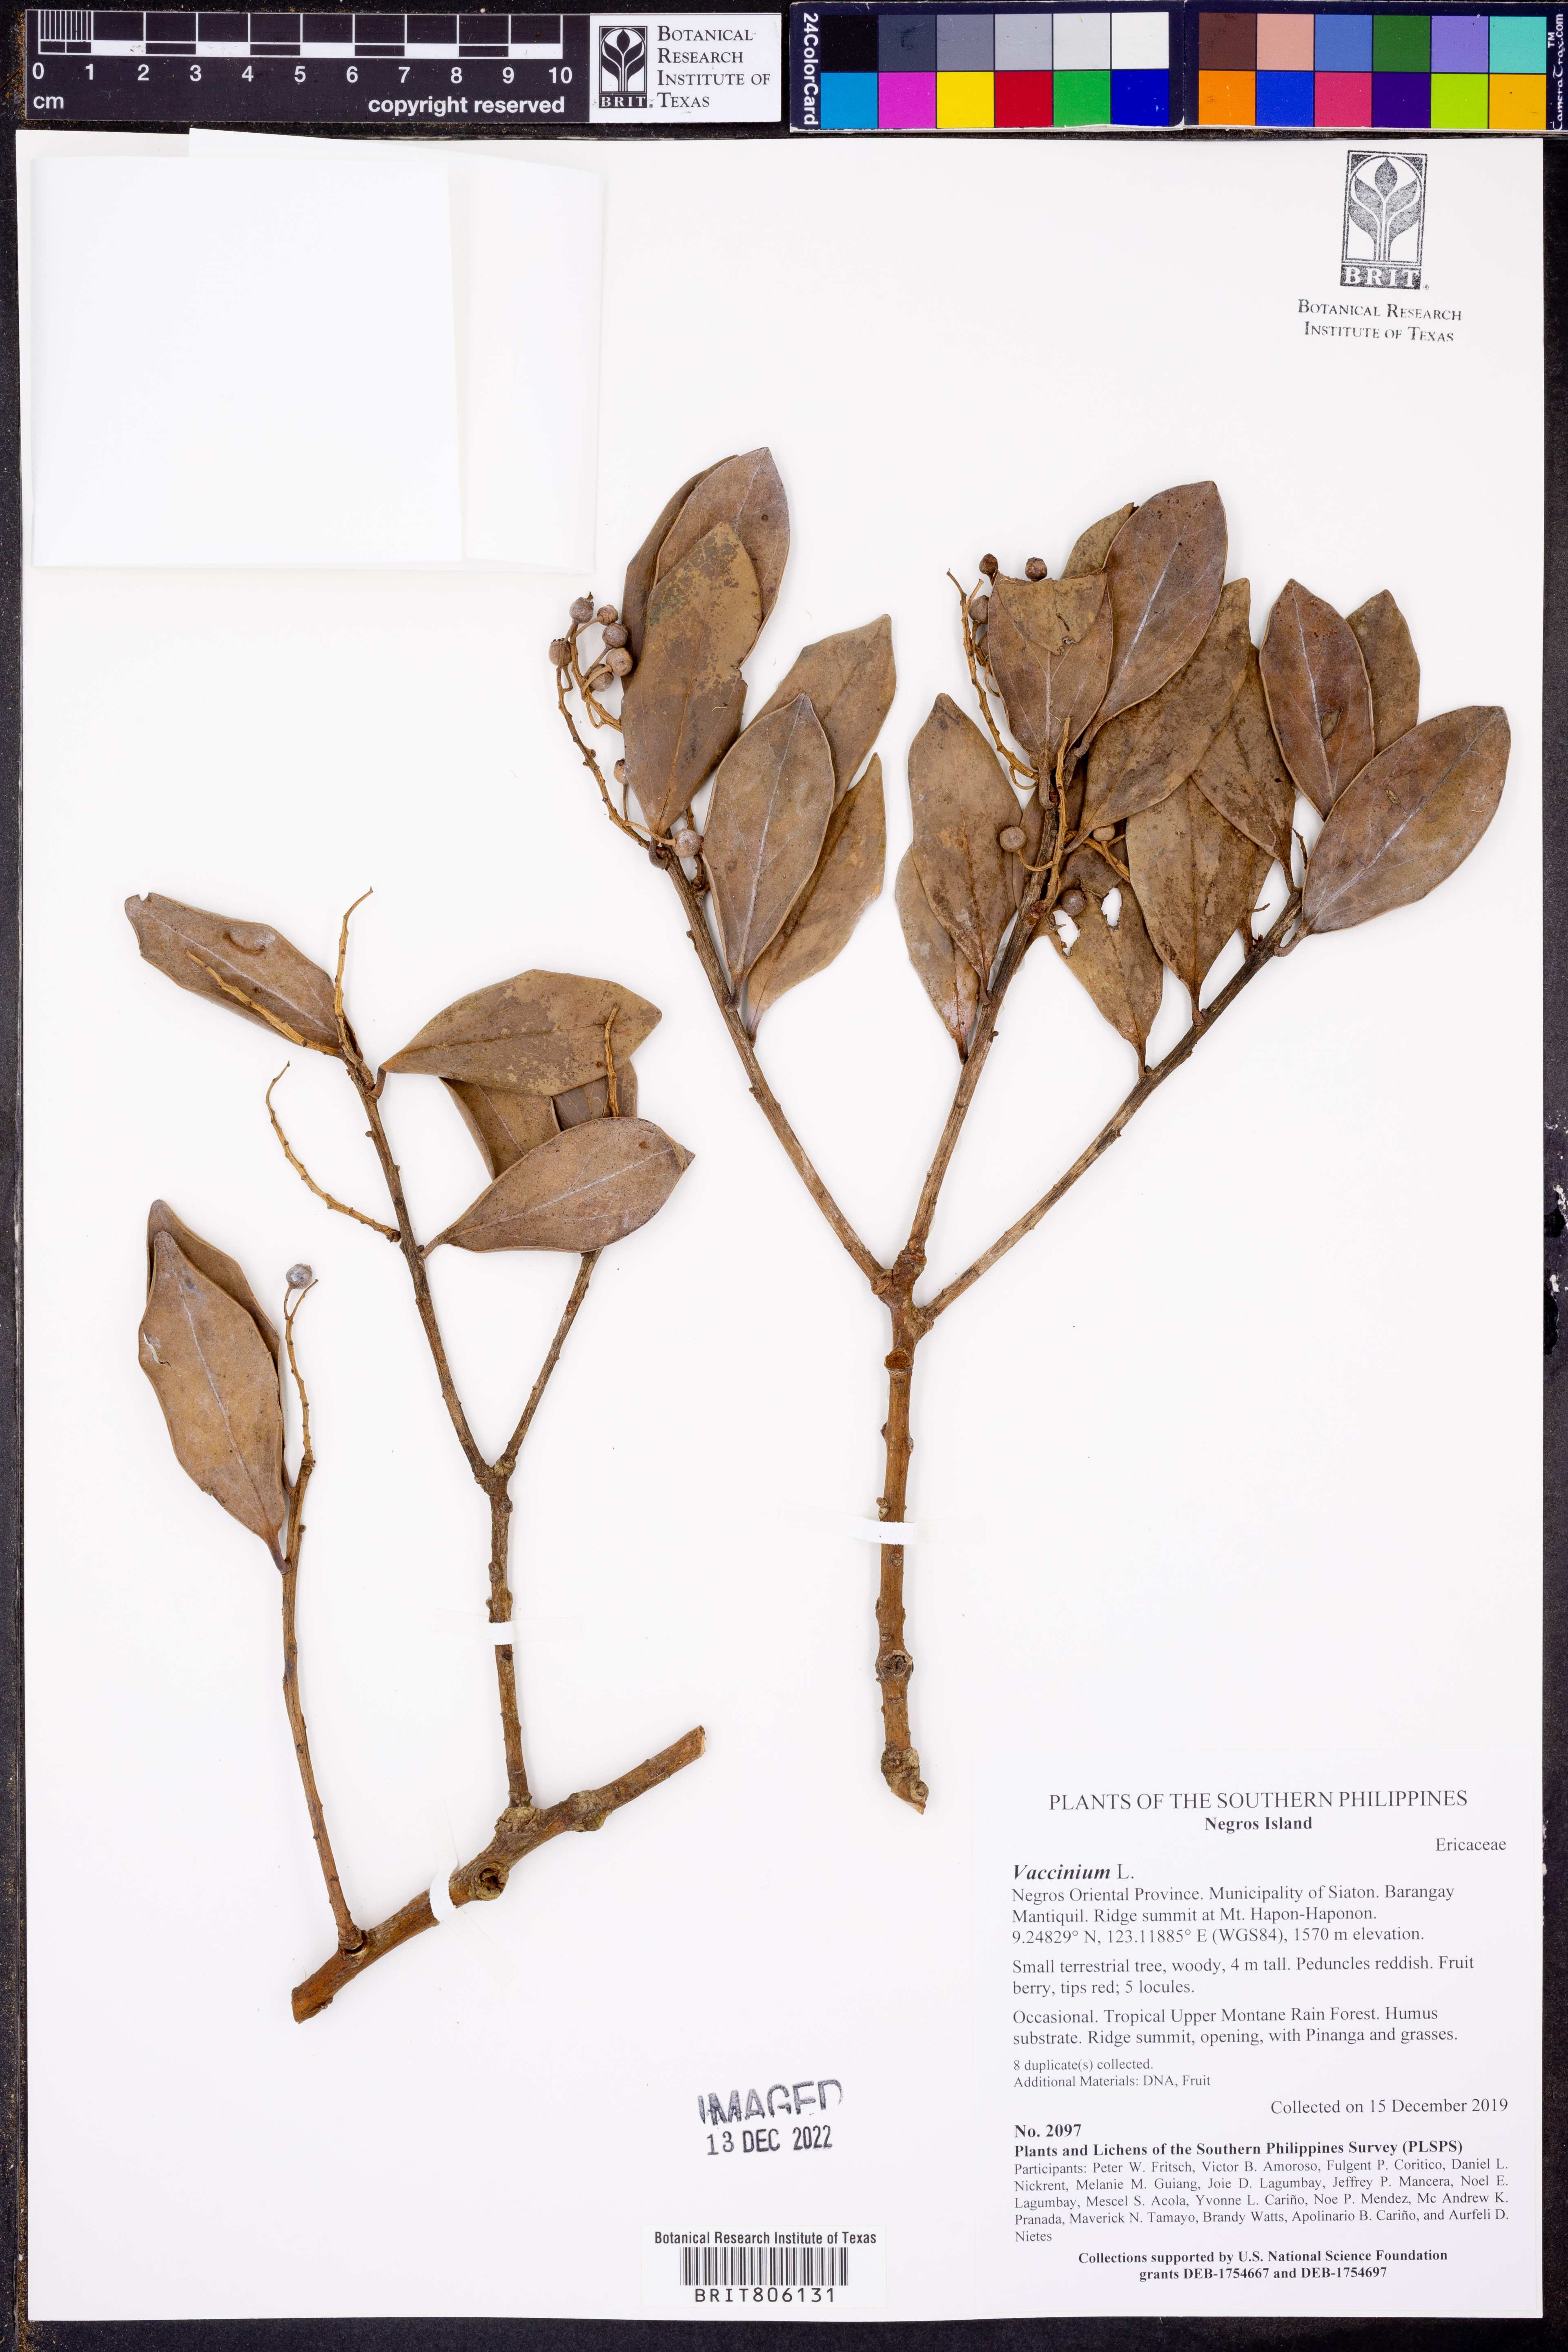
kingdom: Plantae
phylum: Tracheophyta
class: Magnoliopsida
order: Ericales
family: Ericaceae
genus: Vaccinium
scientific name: Vaccinium
